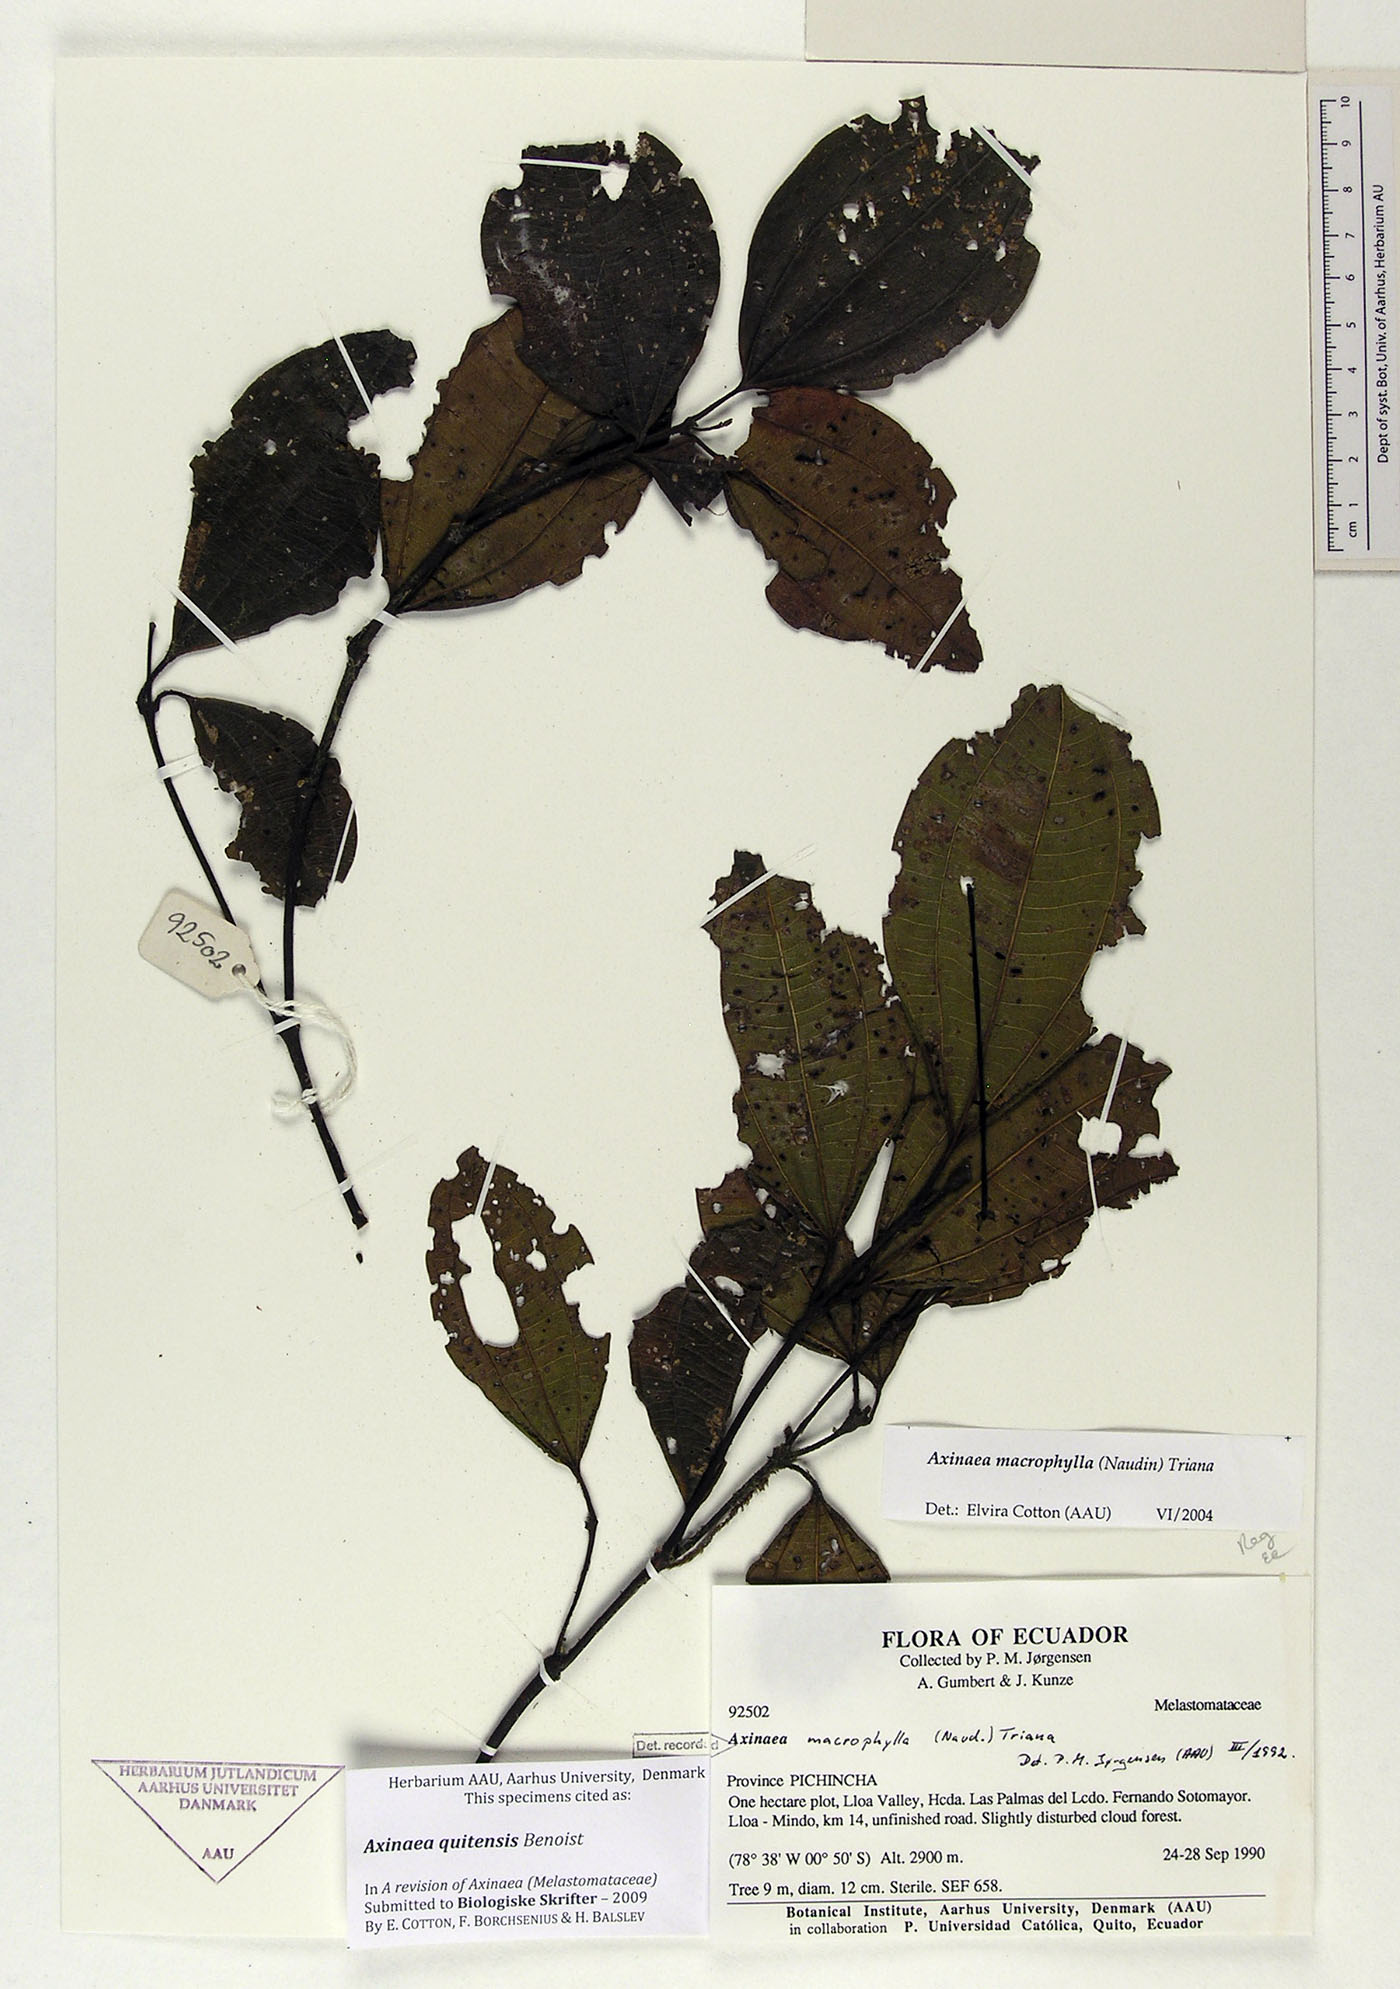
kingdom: Plantae
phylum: Tracheophyta
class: Magnoliopsida
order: Myrtales
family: Melastomataceae
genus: Axinaea
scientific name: Axinaea quitensis
